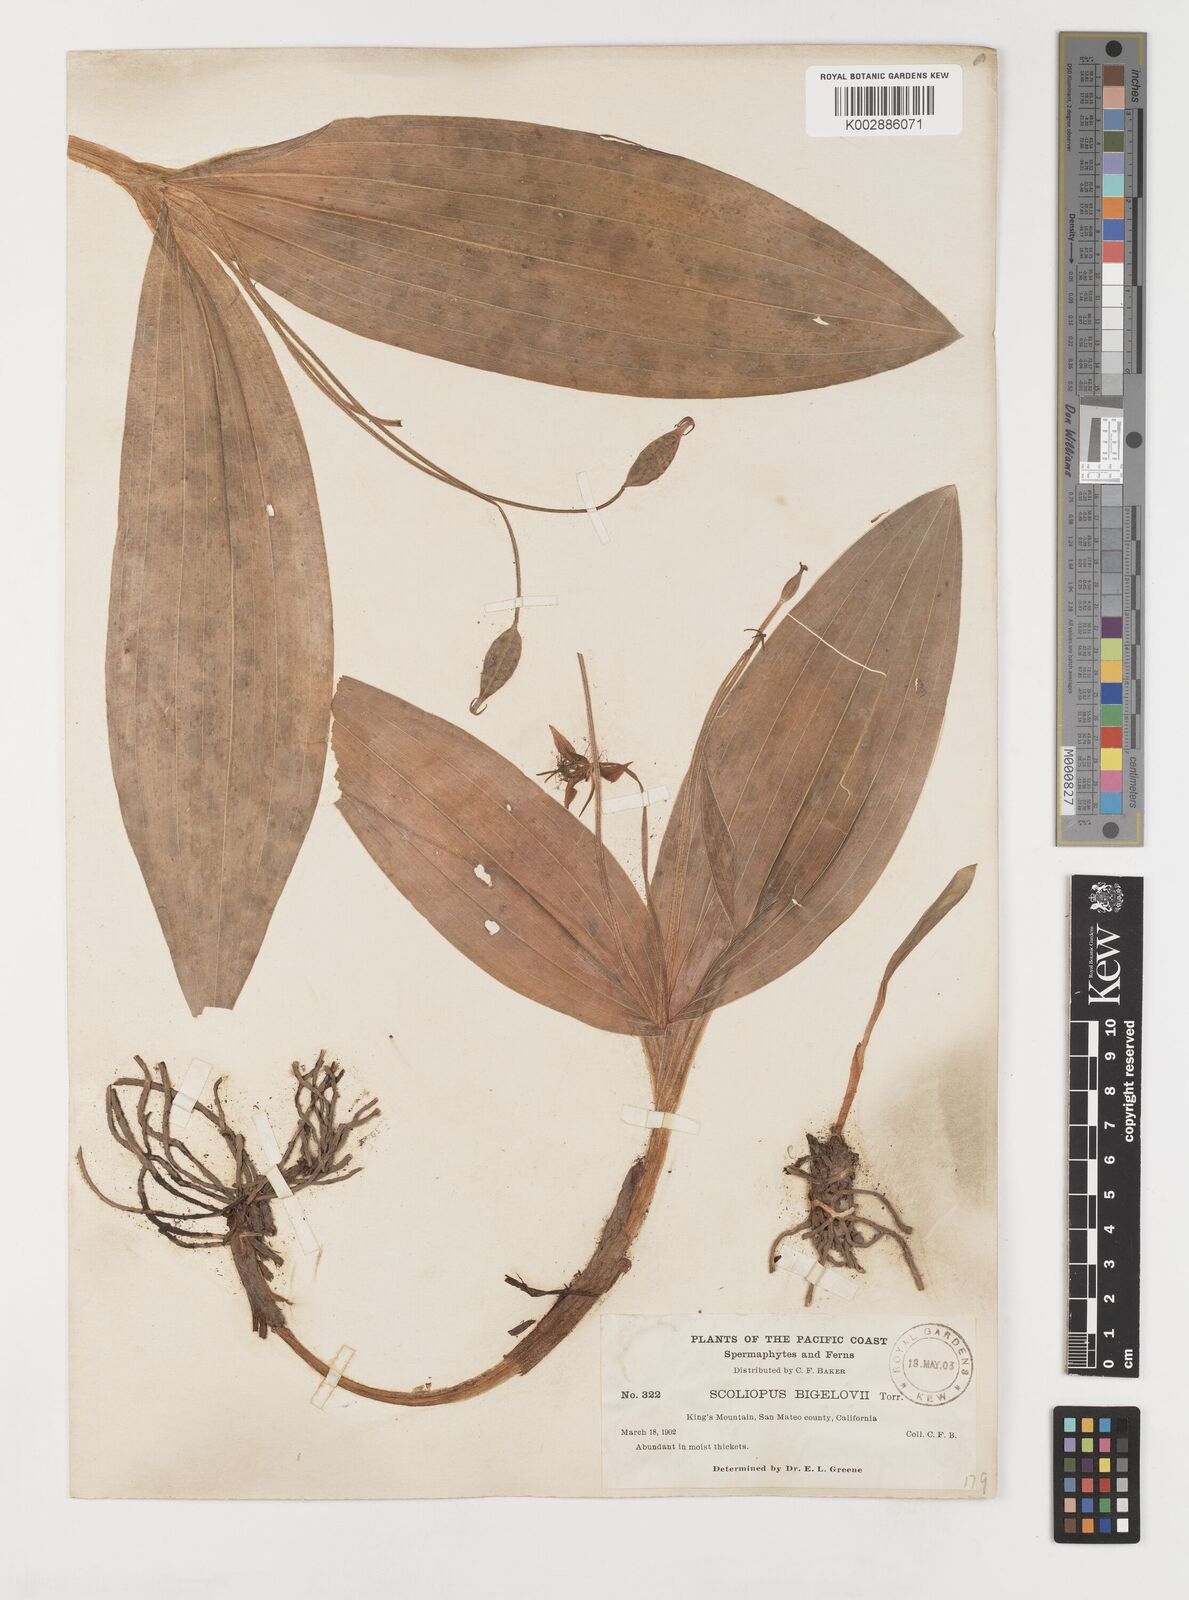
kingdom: Plantae
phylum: Tracheophyta
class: Liliopsida
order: Liliales
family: Liliaceae
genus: Scoliopus
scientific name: Scoliopus bigelovii
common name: Foetid adder's-tongue
